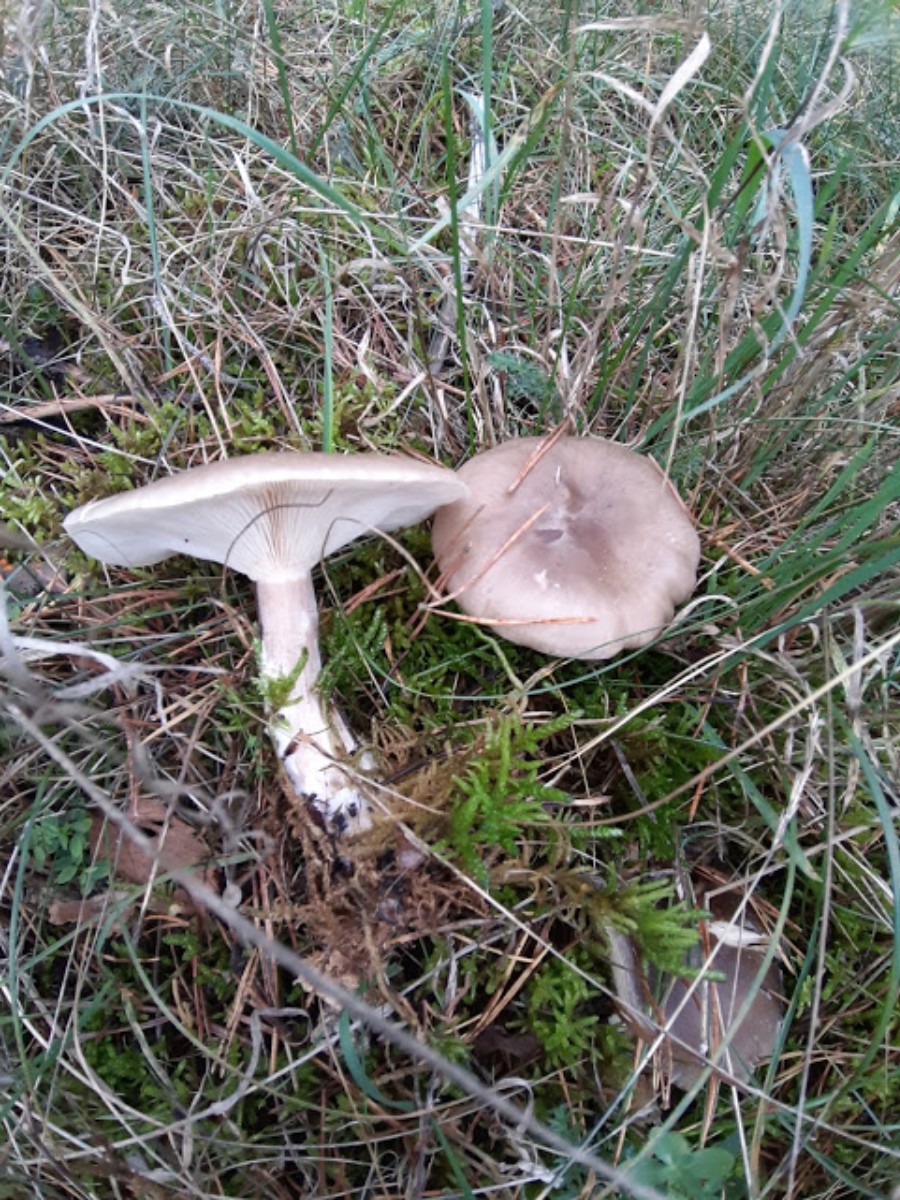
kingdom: Fungi
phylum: Basidiomycota
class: Agaricomycetes
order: Agaricales
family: Tricholomataceae
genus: Clitocybe
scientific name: Clitocybe nebularis
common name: tåge-tragthat
